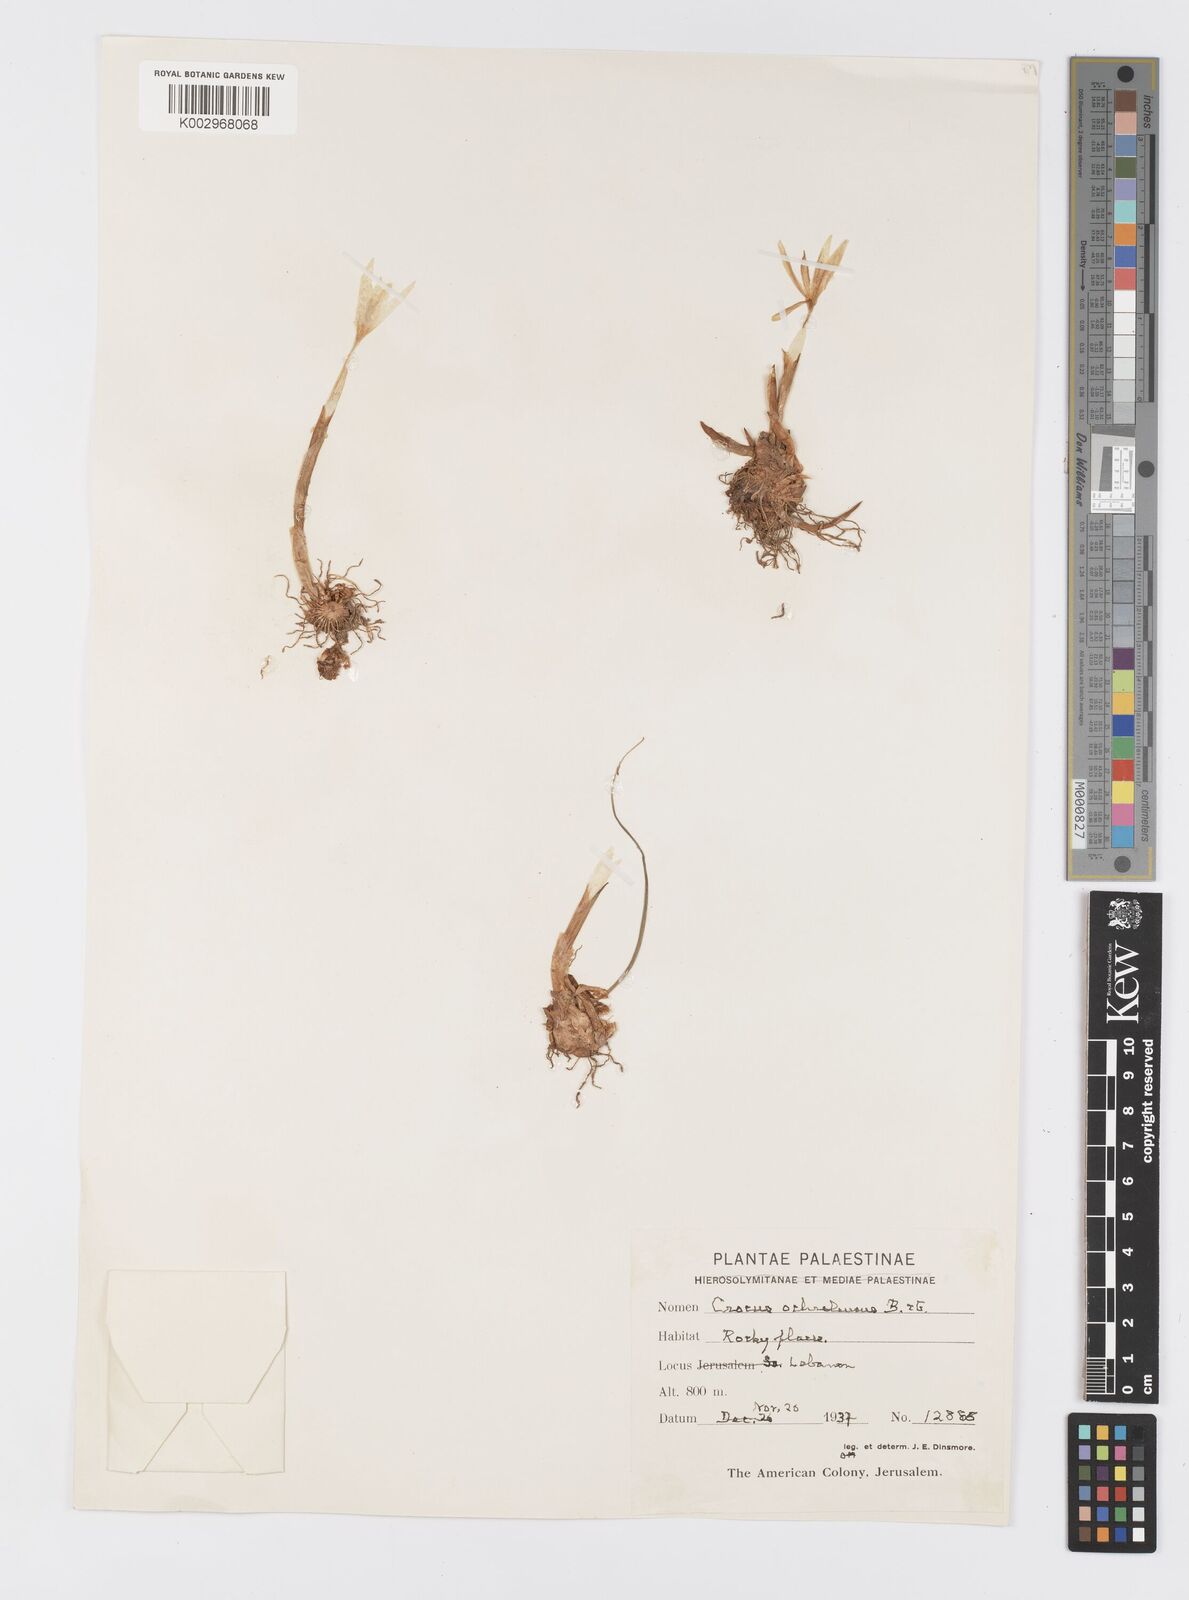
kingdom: Plantae
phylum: Tracheophyta
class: Liliopsida
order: Asparagales
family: Iridaceae
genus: Crocus
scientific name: Crocus ochroleucus
